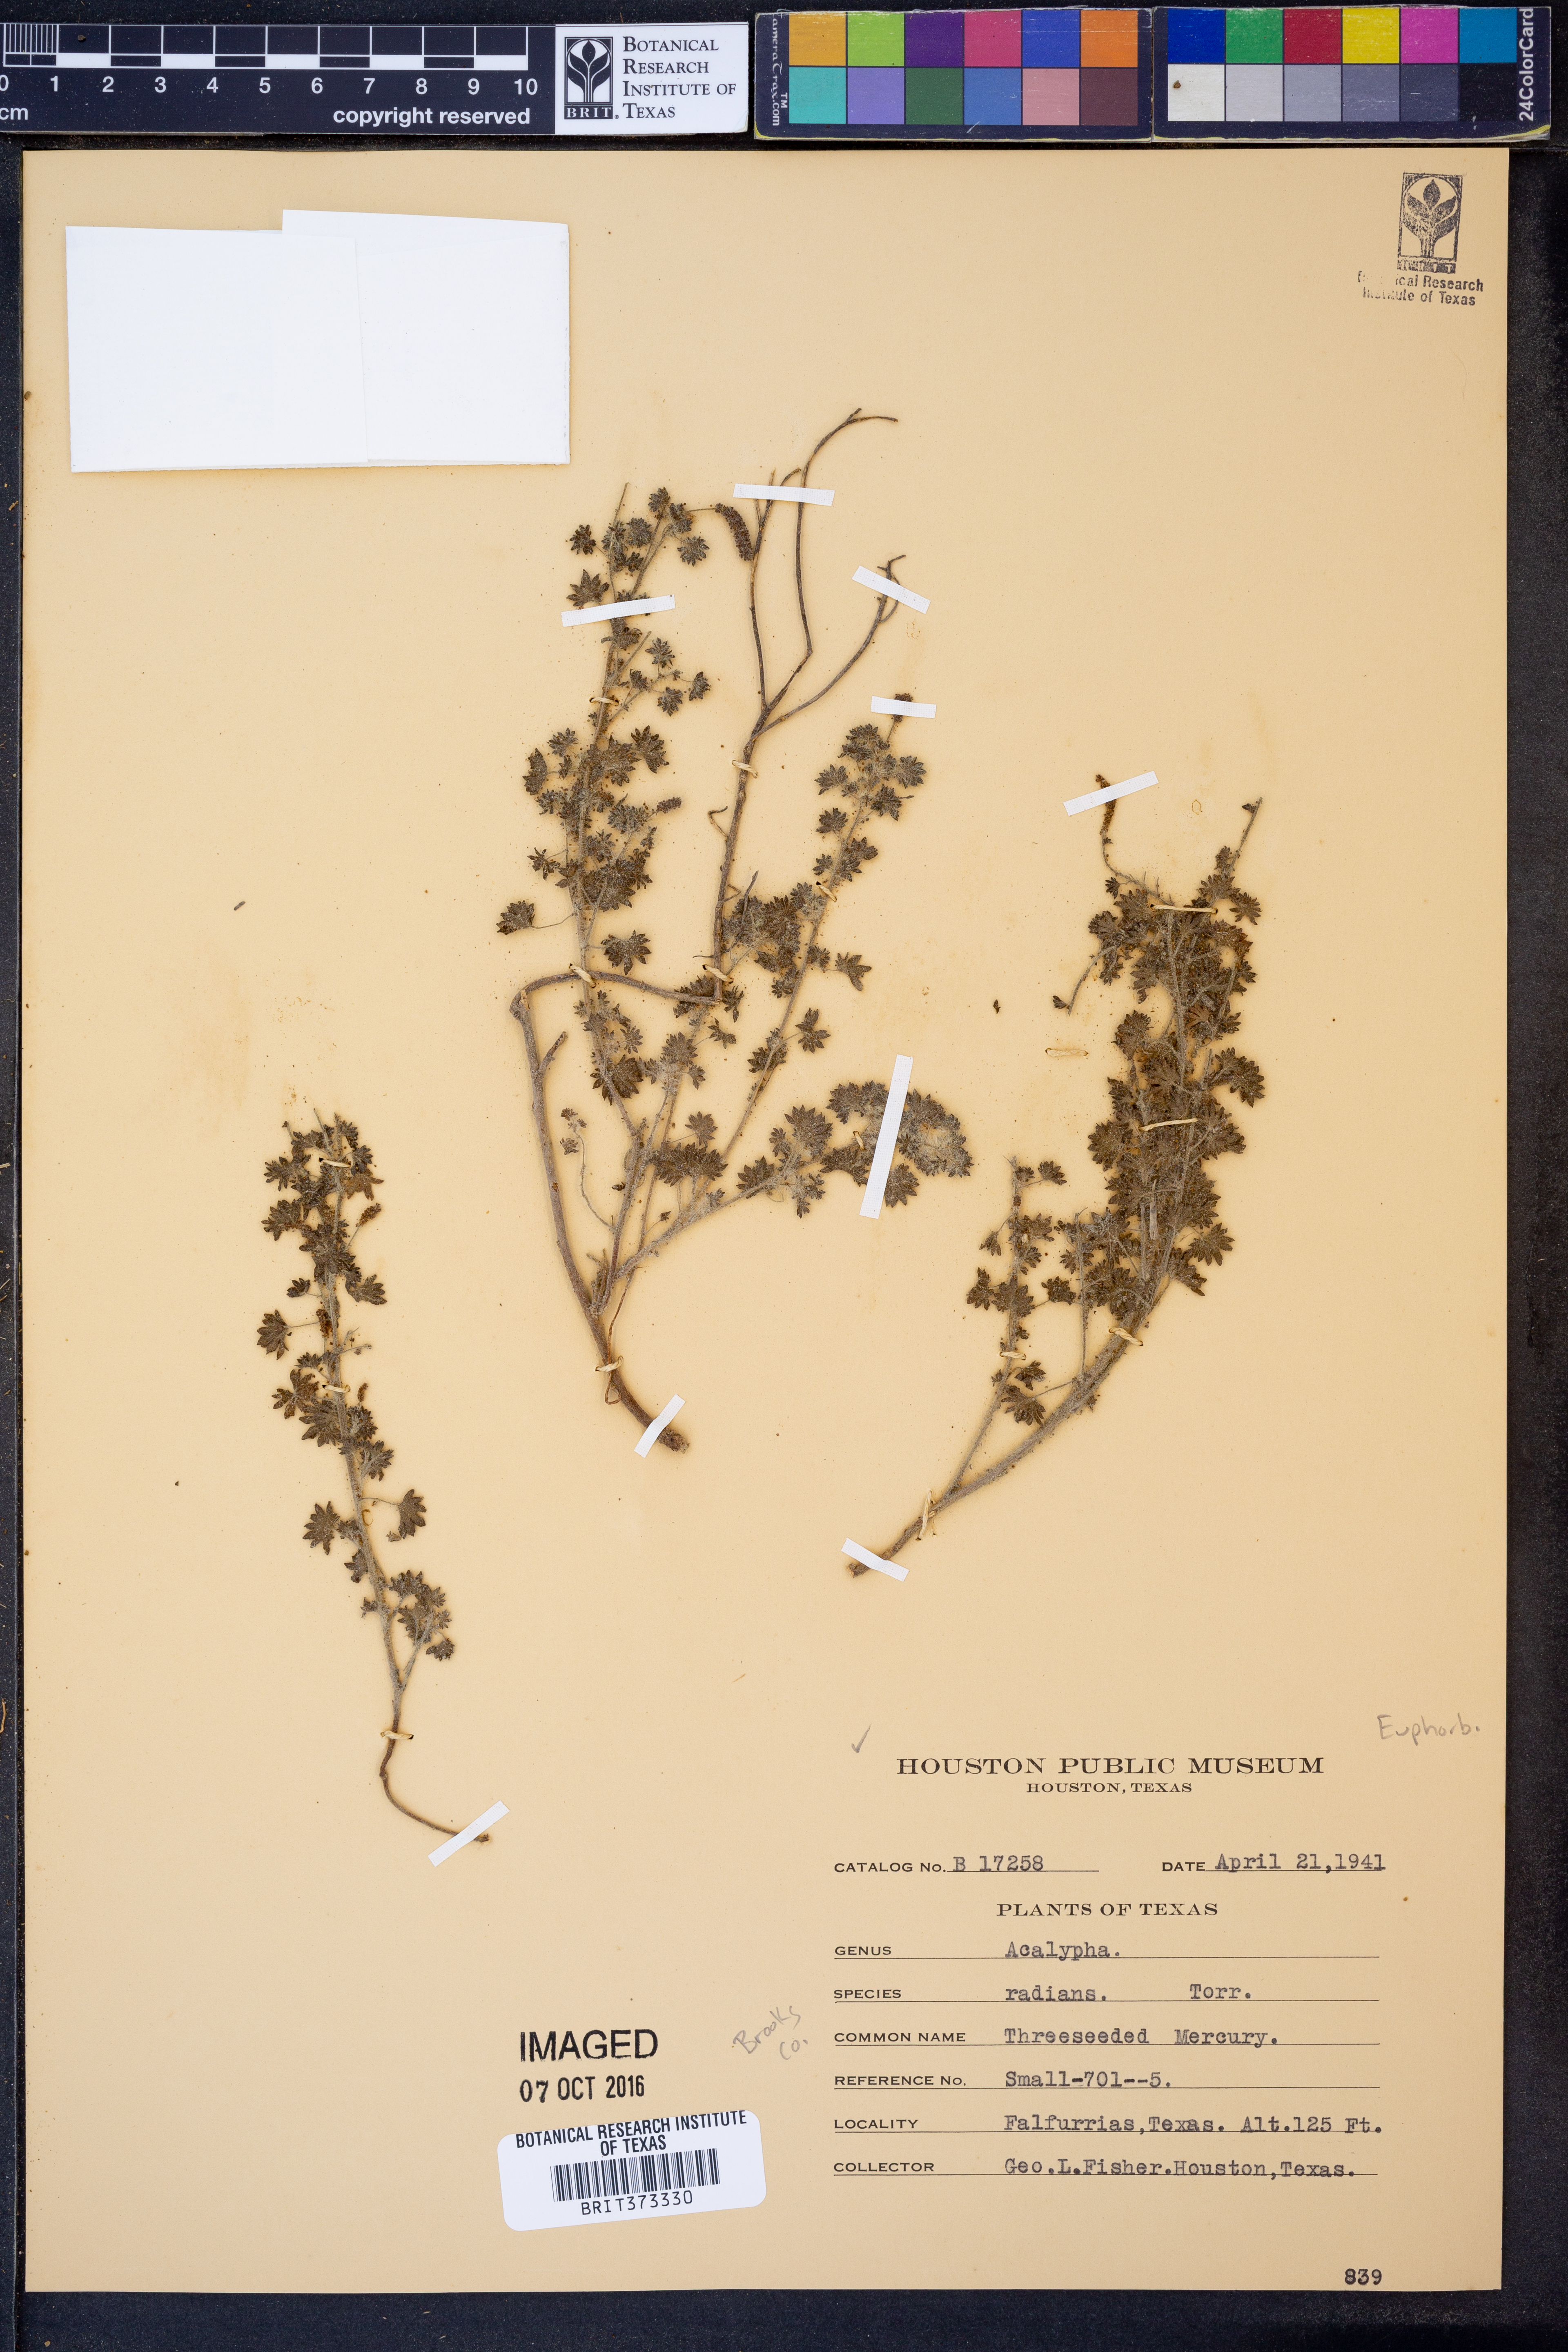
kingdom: Plantae
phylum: Tracheophyta
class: Magnoliopsida
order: Malpighiales
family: Euphorbiaceae
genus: Acalypha
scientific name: Acalypha radians
